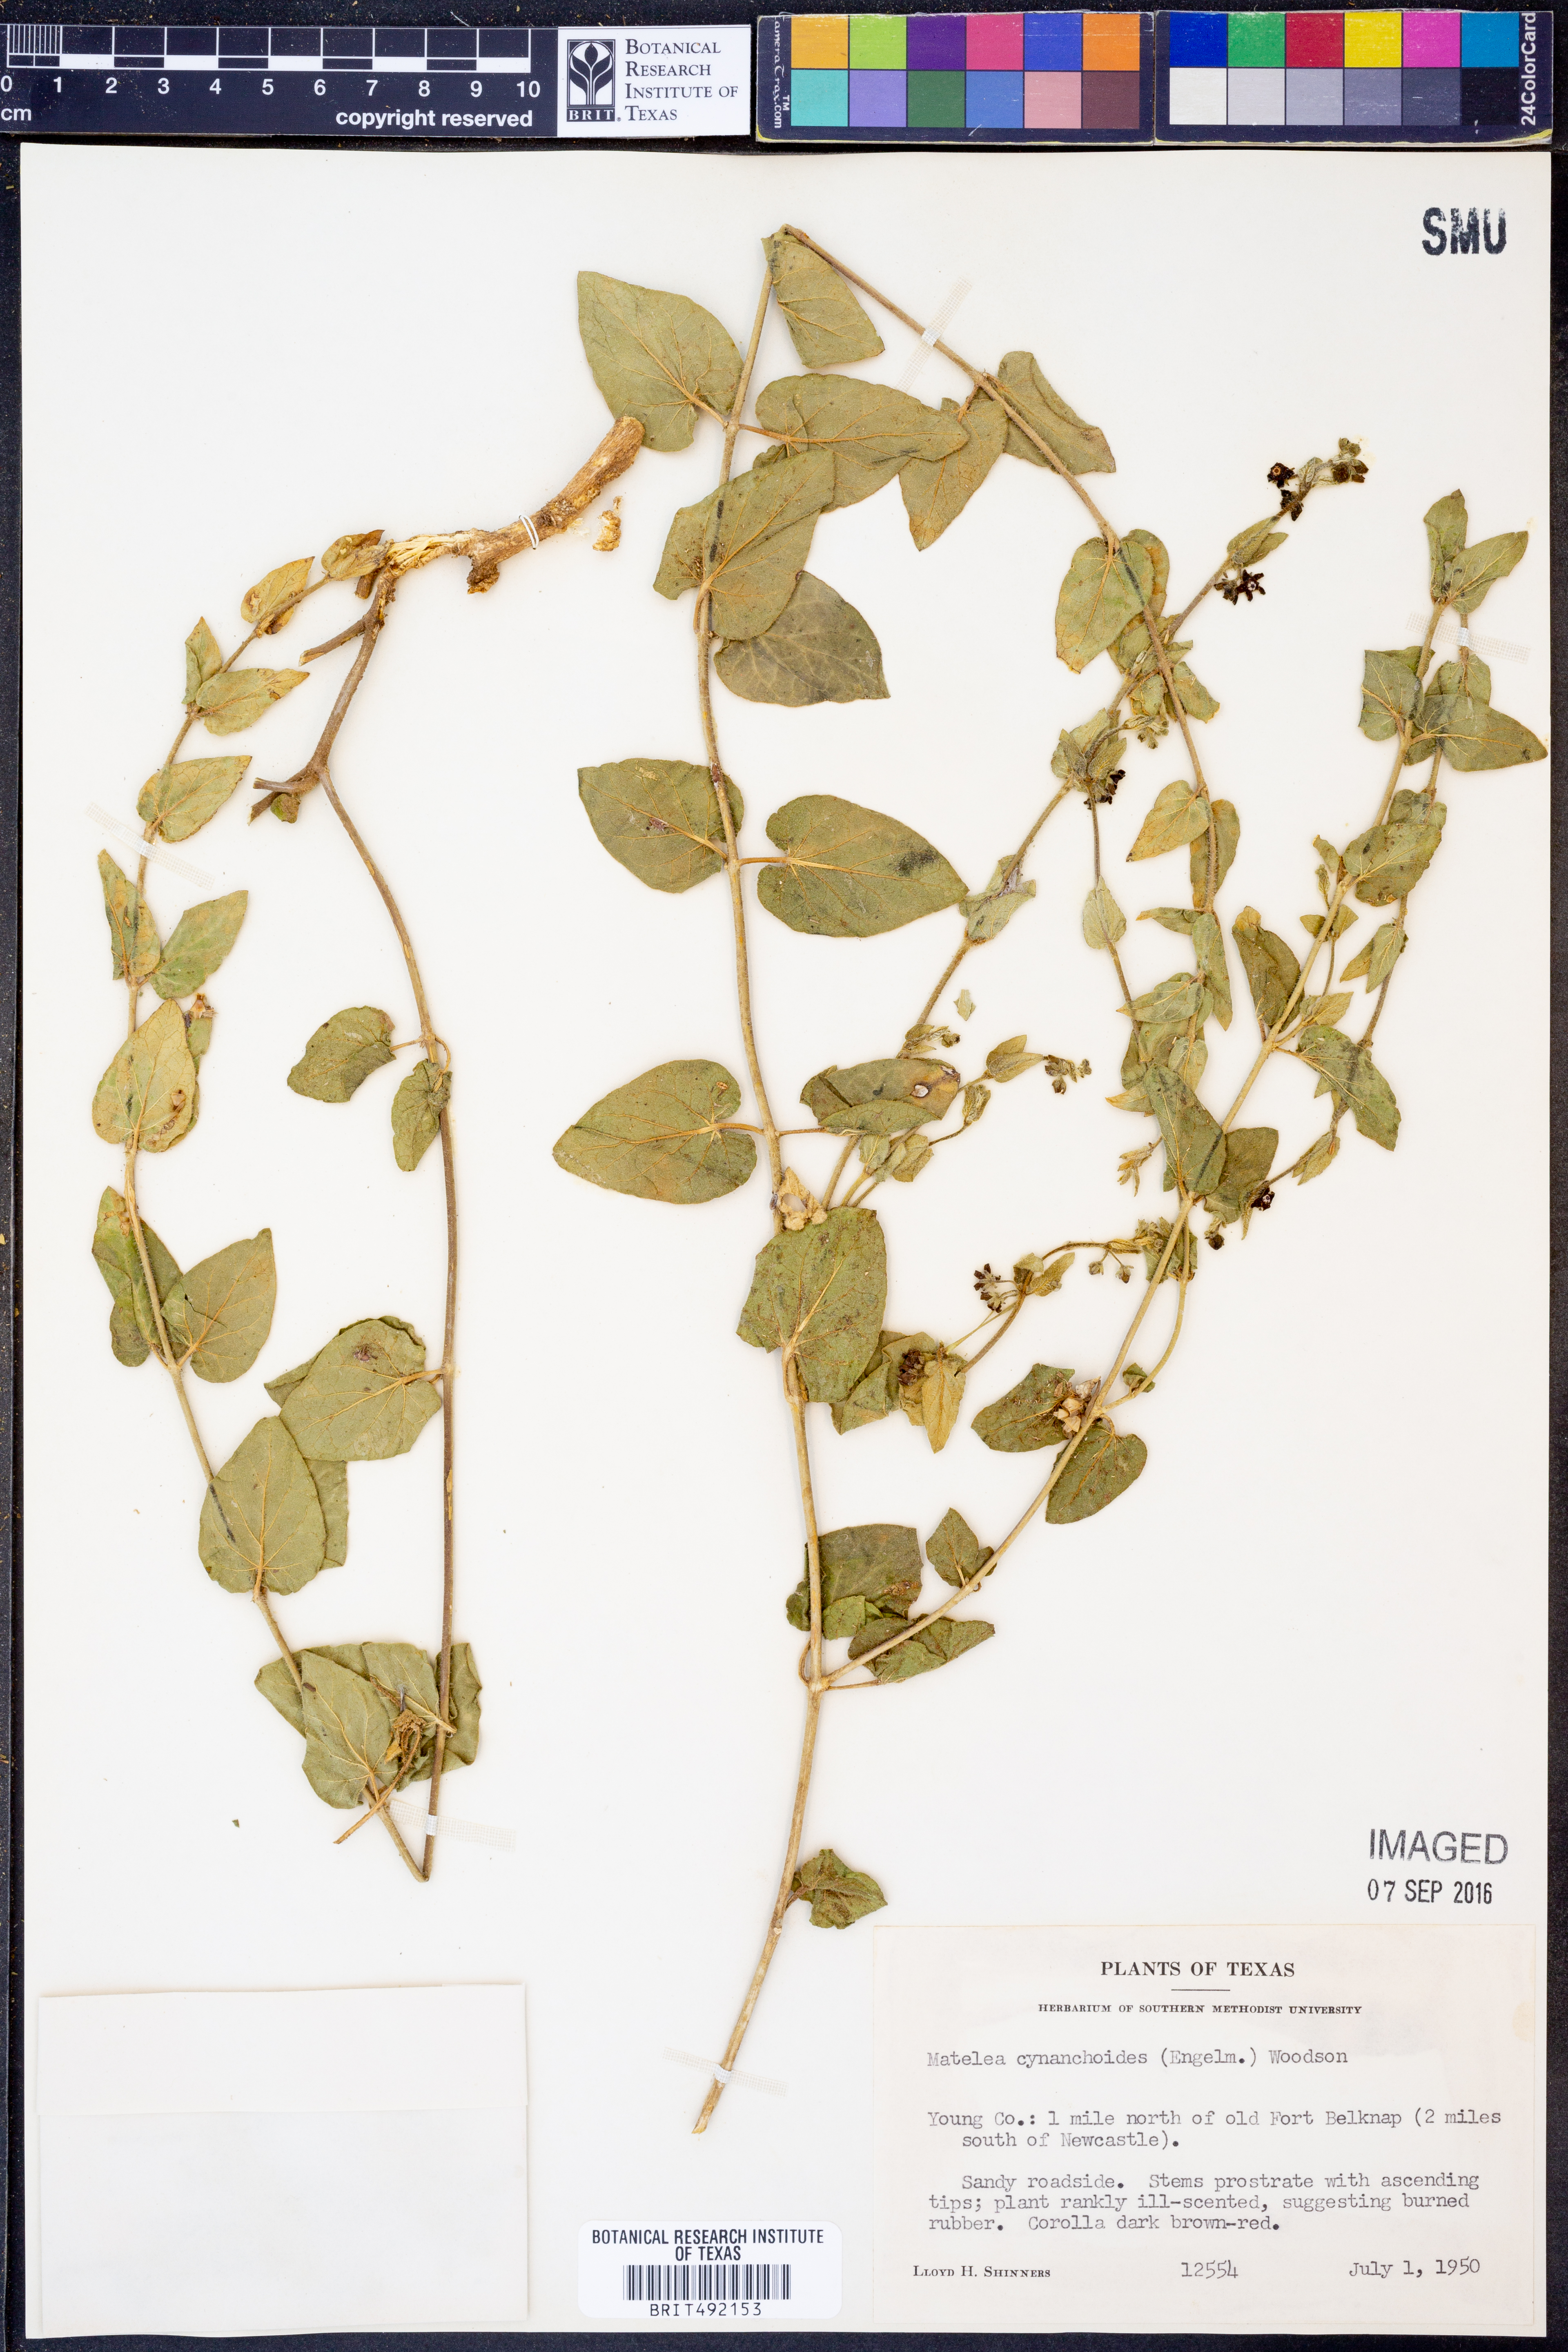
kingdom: Plantae
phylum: Tracheophyta
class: Magnoliopsida
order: Gentianales
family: Apocynaceae
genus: Matelea
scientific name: Matelea cynanchoides
